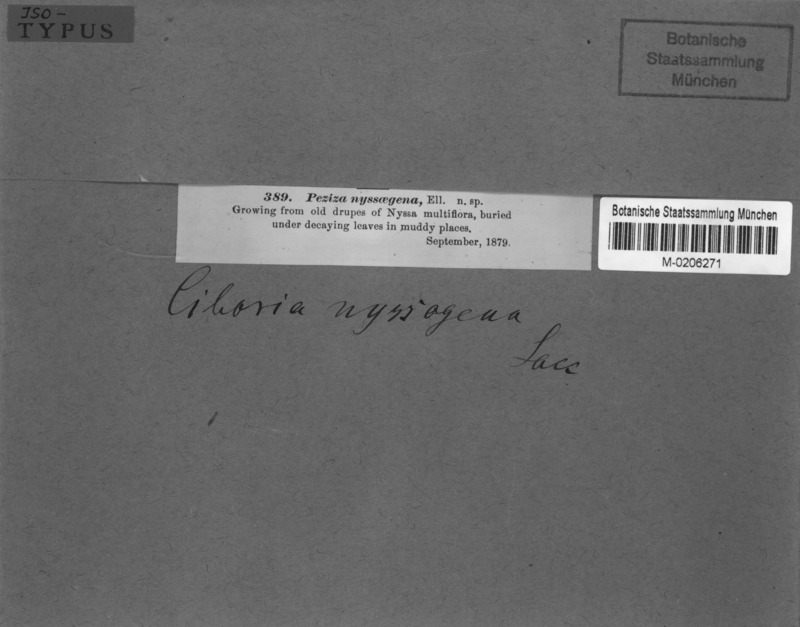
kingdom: Fungi
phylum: Ascomycota
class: Leotiomycetes
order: Helotiales
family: Sclerotiniaceae
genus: Sclerotinia
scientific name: Sclerotinia nyssigena
